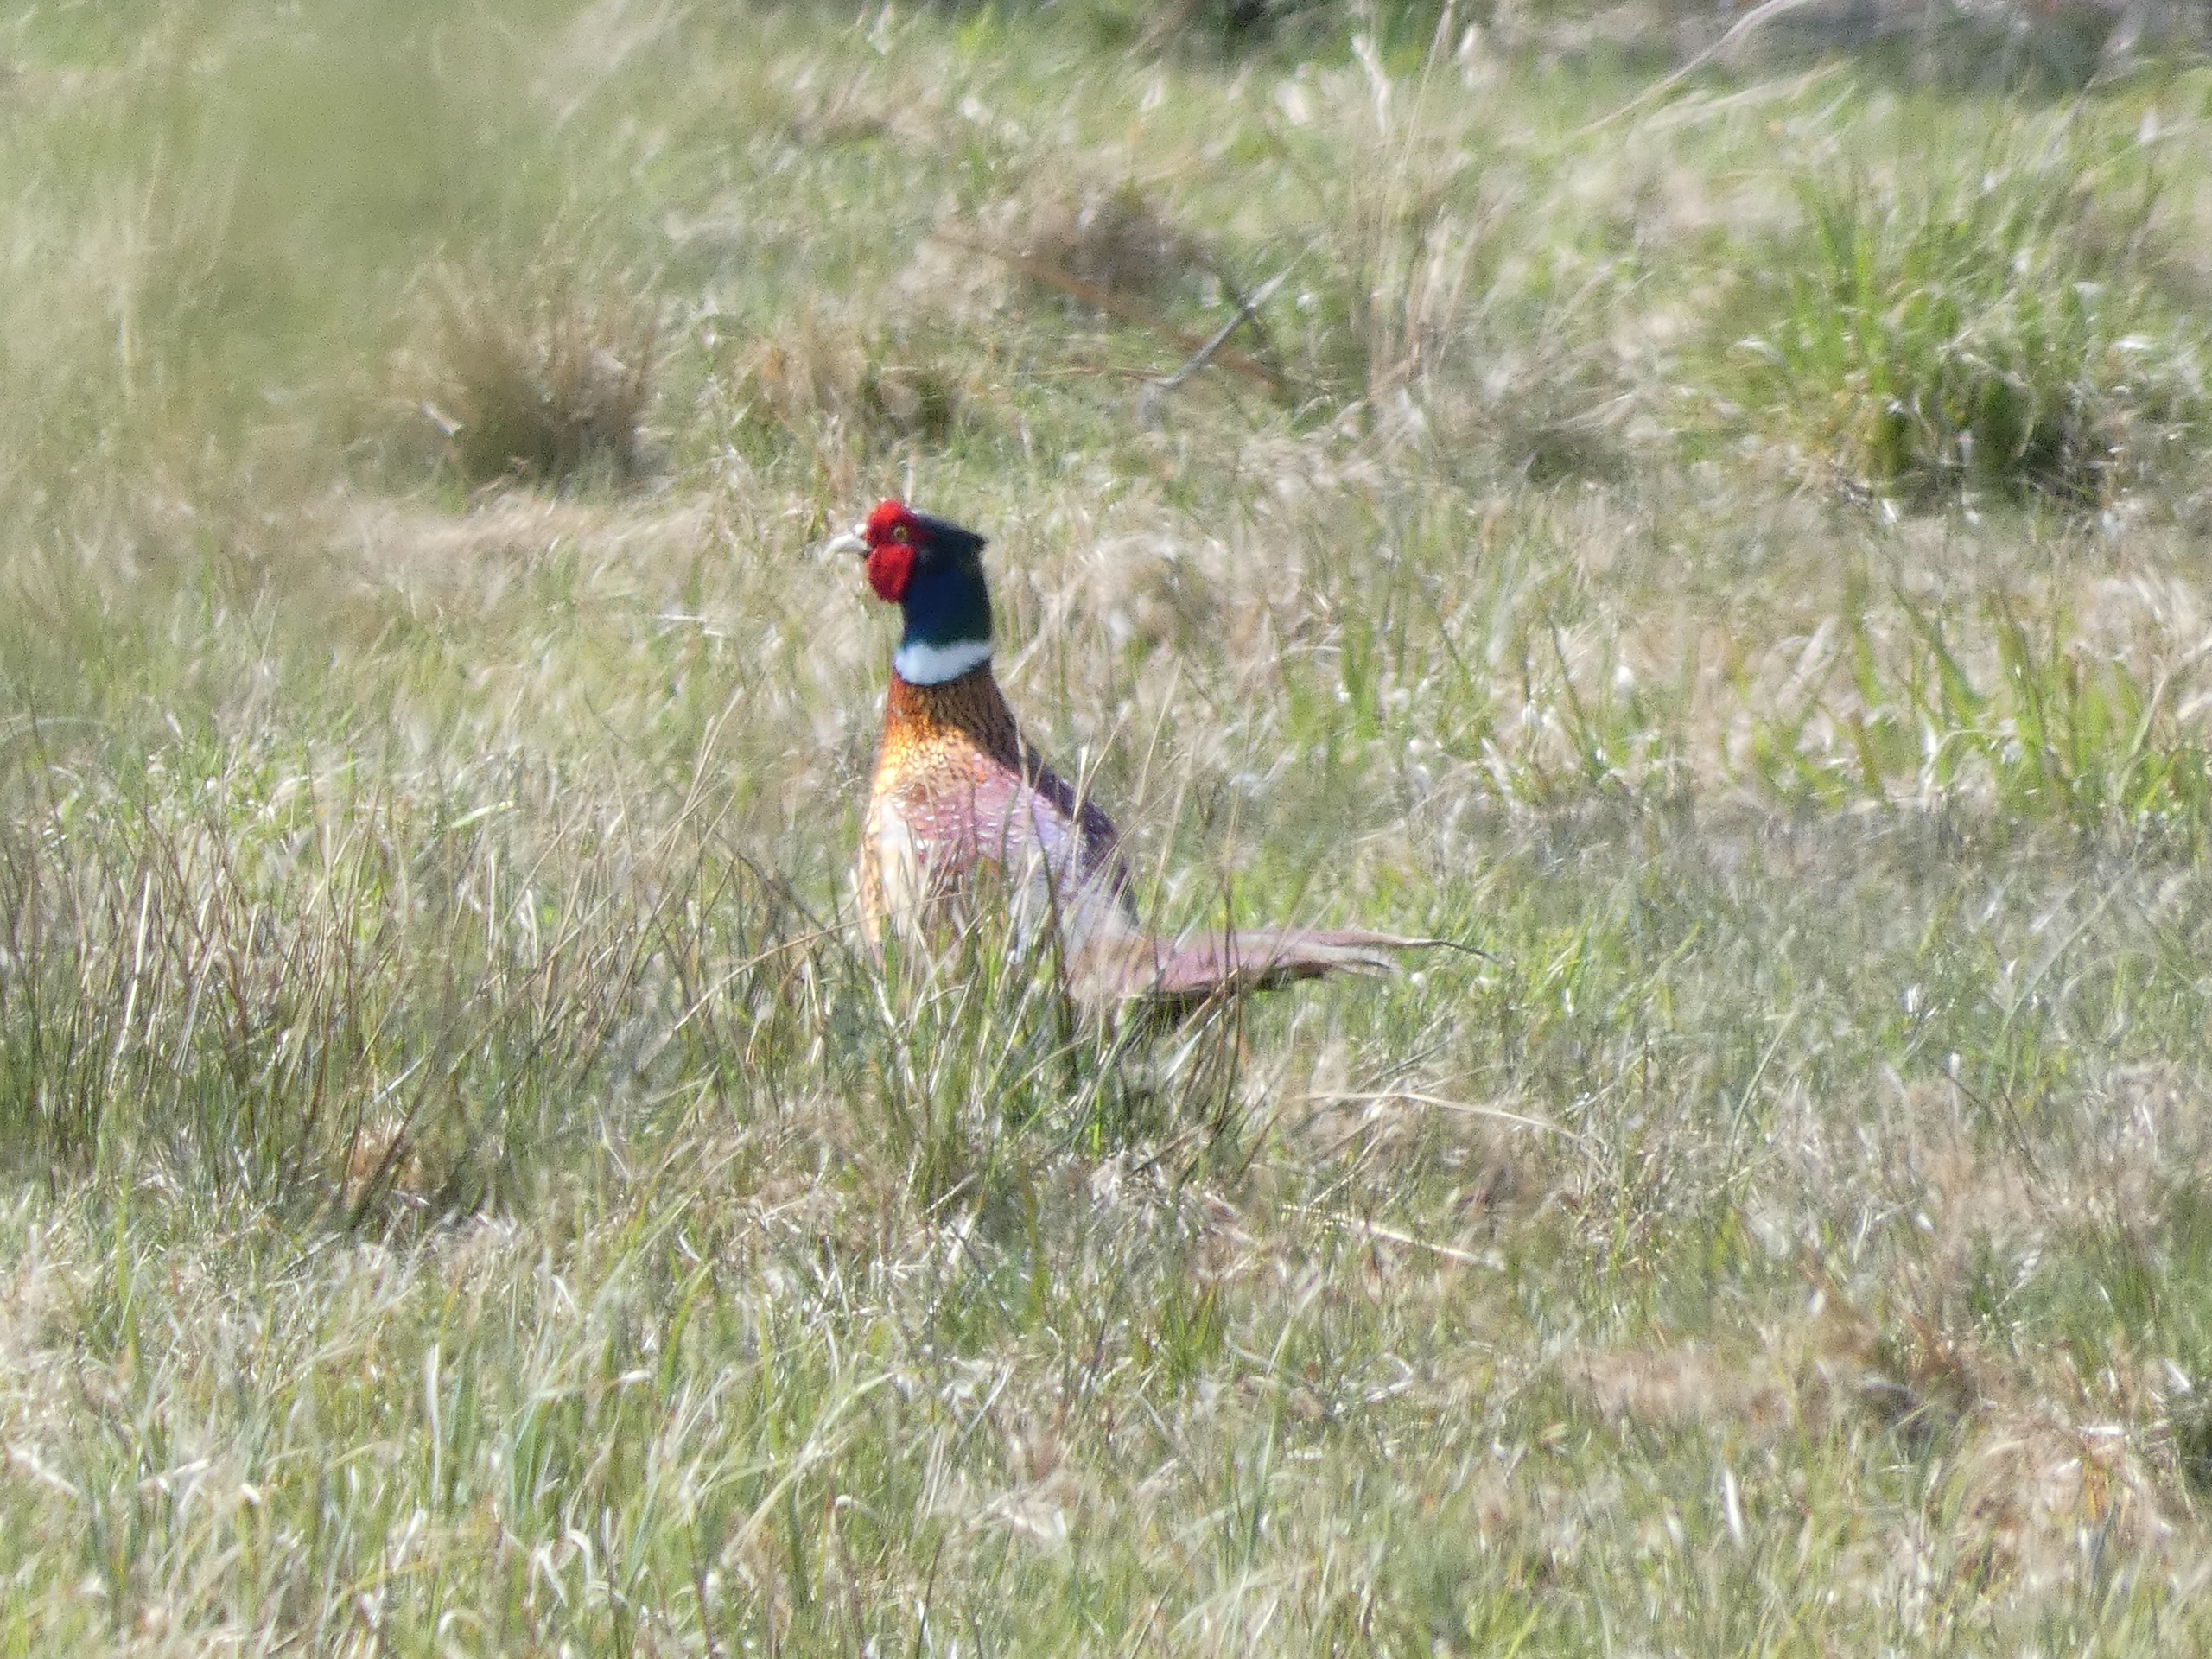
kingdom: Animalia
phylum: Chordata
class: Aves
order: Galliformes
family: Phasianidae
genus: Phasianus
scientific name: Phasianus colchicus
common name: Fasan
